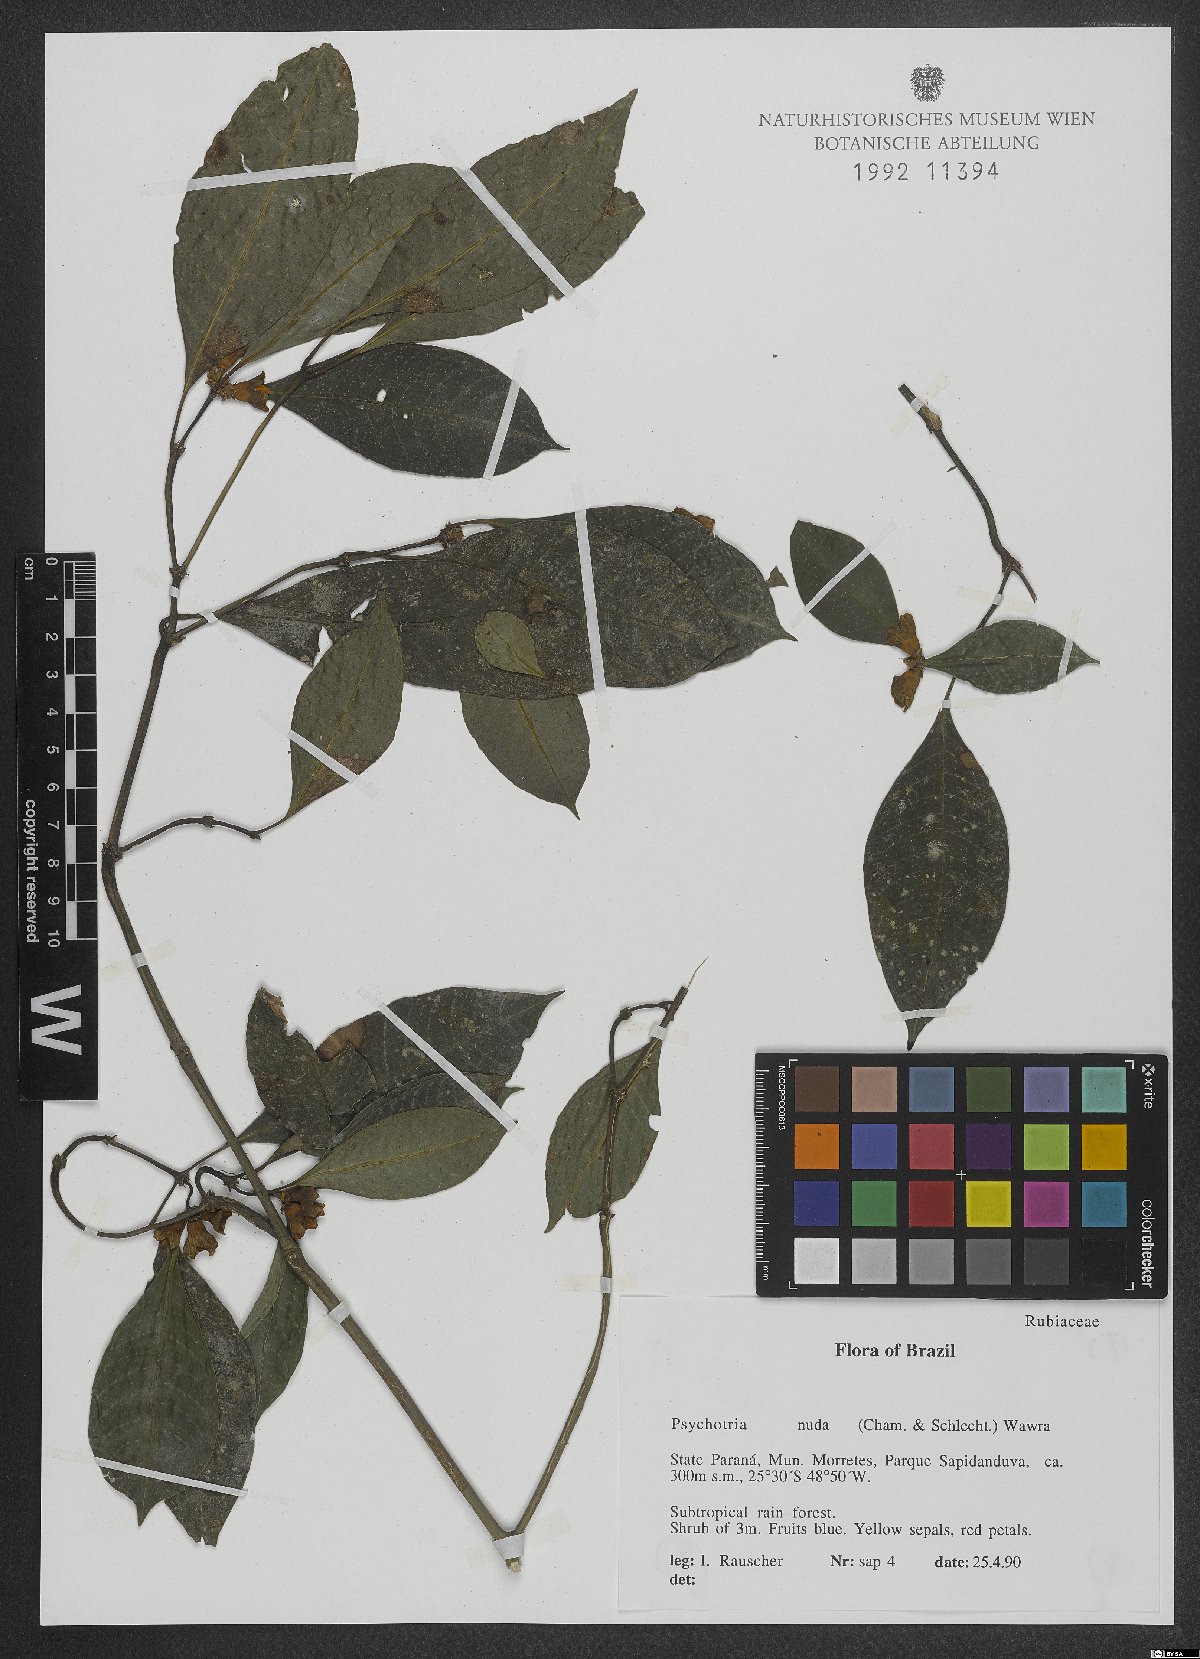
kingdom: Plantae
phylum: Tracheophyta
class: Magnoliopsida
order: Gentianales
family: Rubiaceae
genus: Psychotria
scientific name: Psychotria nuda
